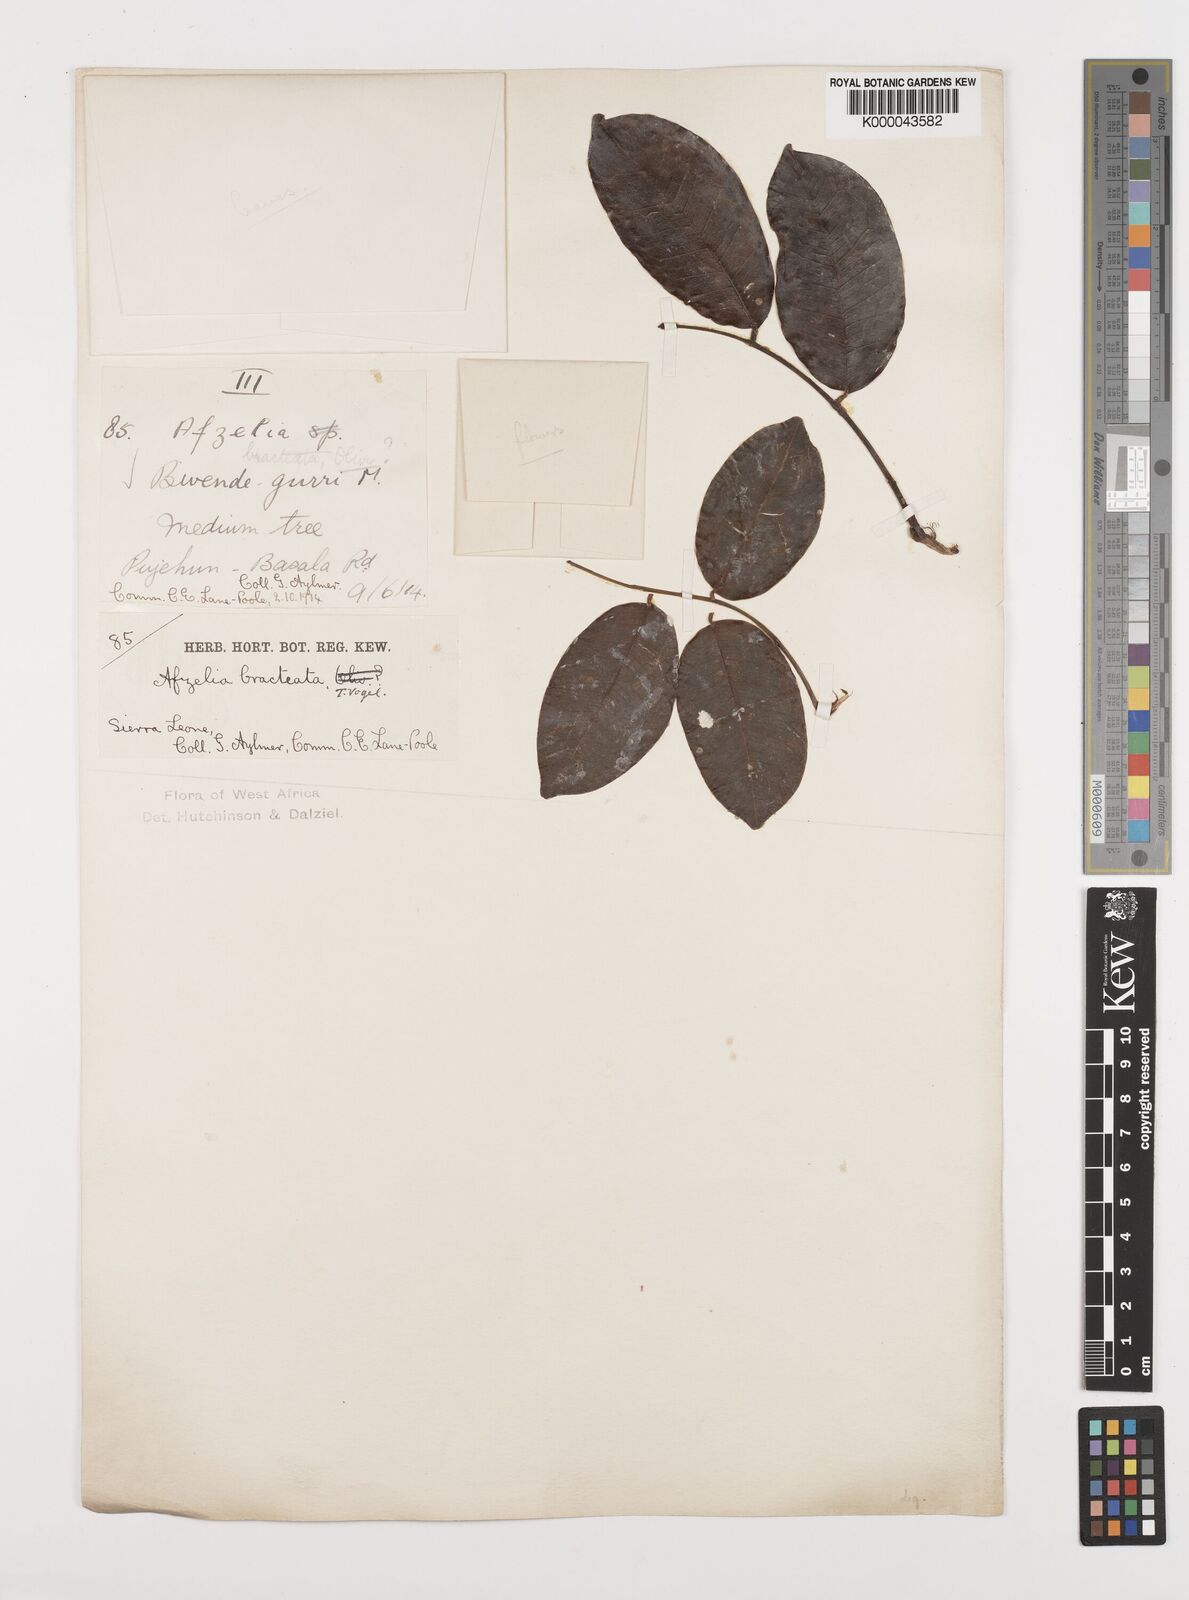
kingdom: Plantae
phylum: Tracheophyta
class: Magnoliopsida
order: Fabales
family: Fabaceae
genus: Afzelia
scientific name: Afzelia
